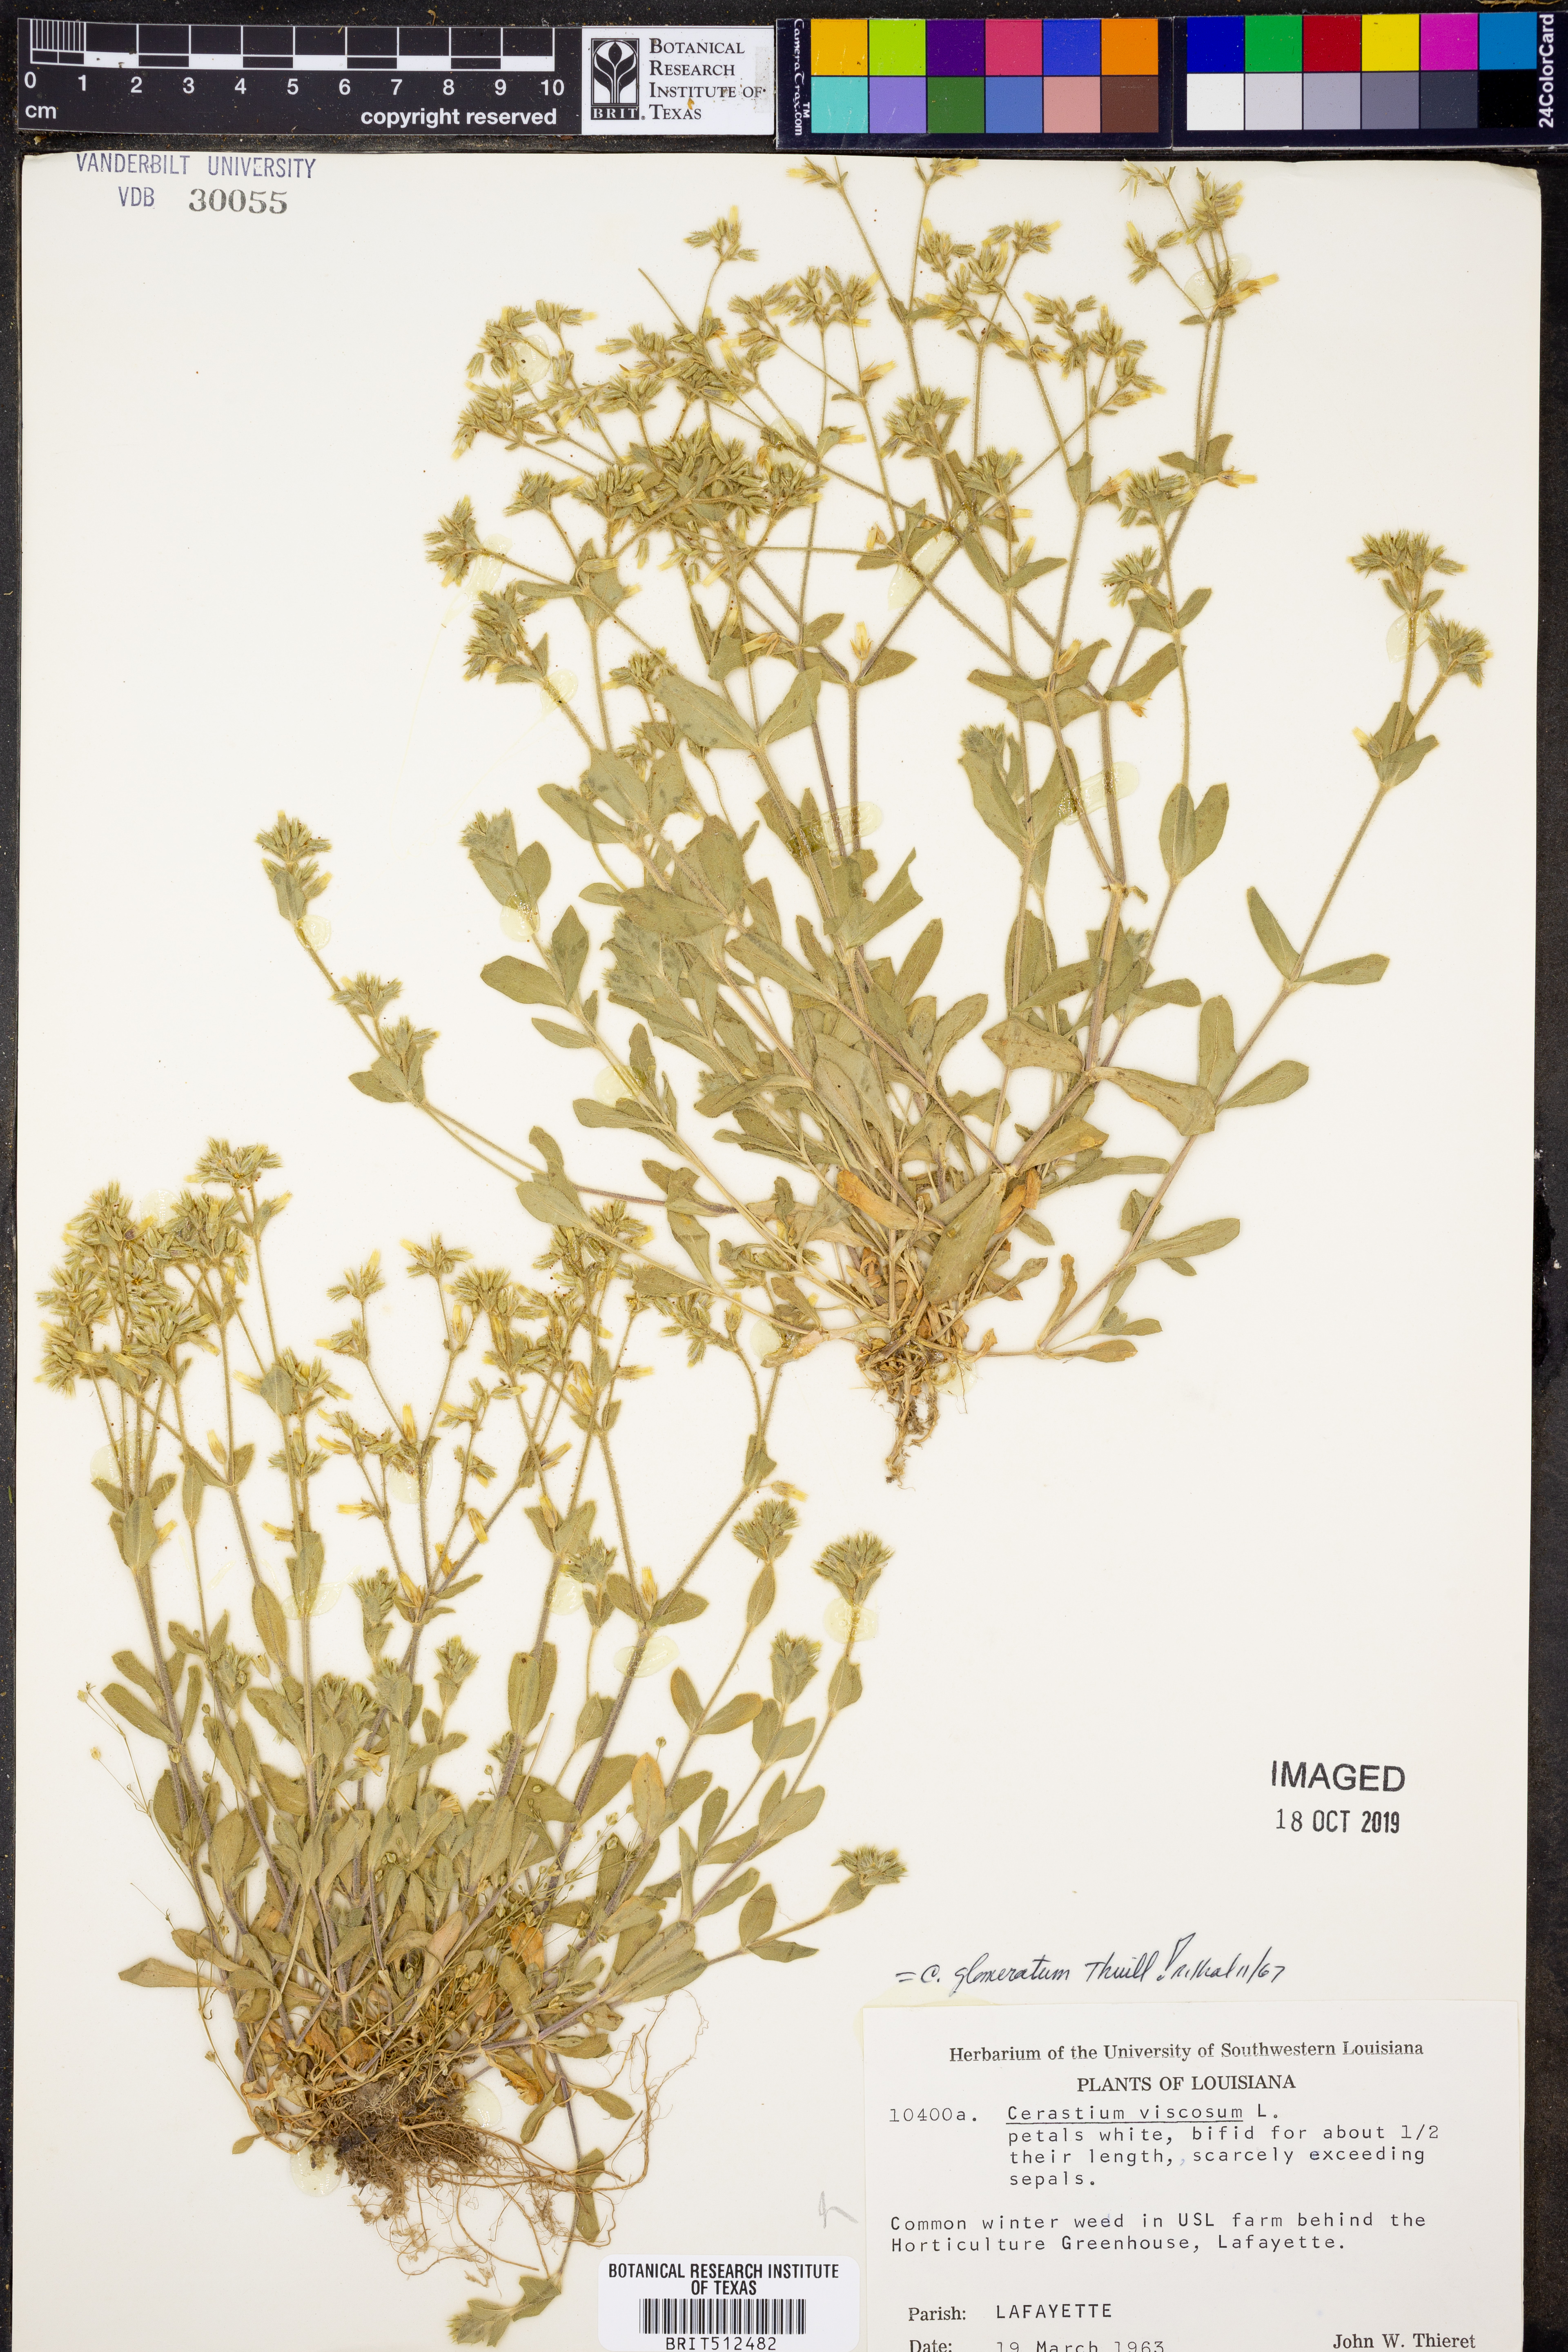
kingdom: Plantae
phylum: Tracheophyta
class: Magnoliopsida
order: Caryophyllales
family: Caryophyllaceae
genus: Cerastium
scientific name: Cerastium glomeratum
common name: Sticky chickweed
